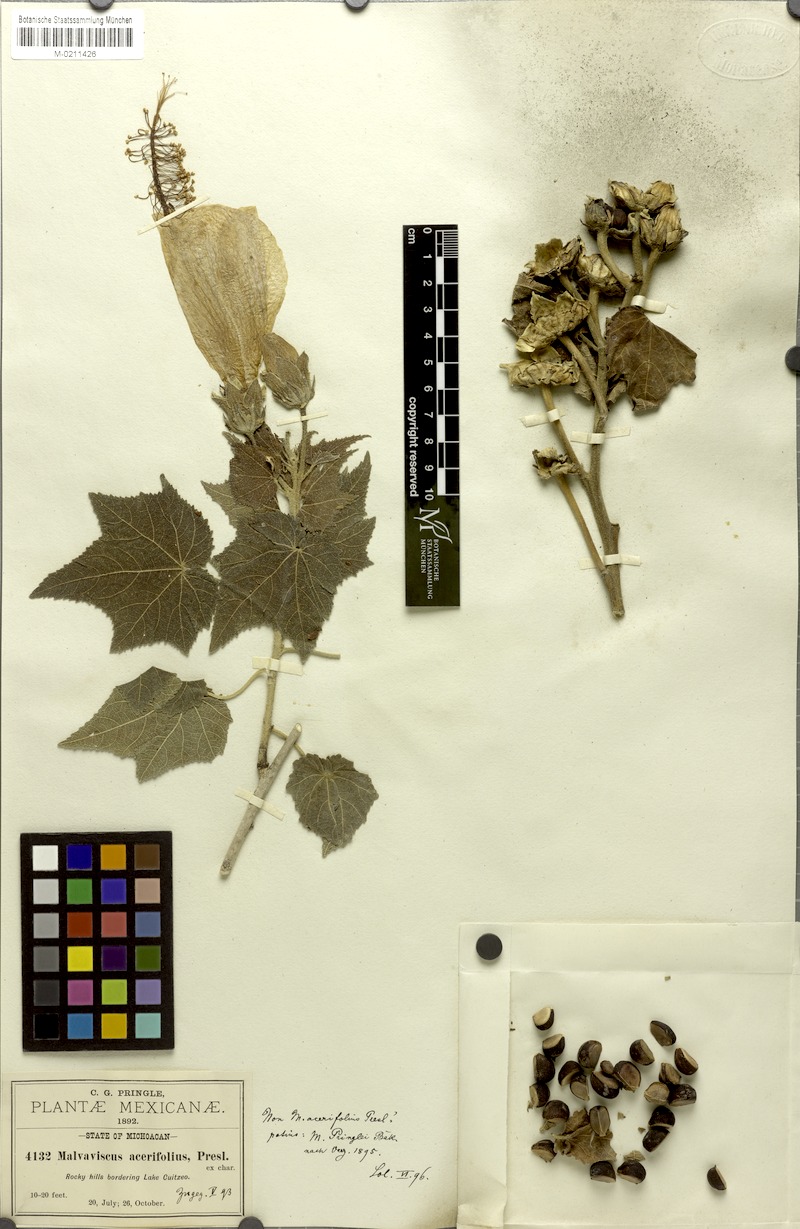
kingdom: Plantae
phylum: Tracheophyta
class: Magnoliopsida
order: Malvales
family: Malvaceae
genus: Pavonia
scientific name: Pavonia candida
